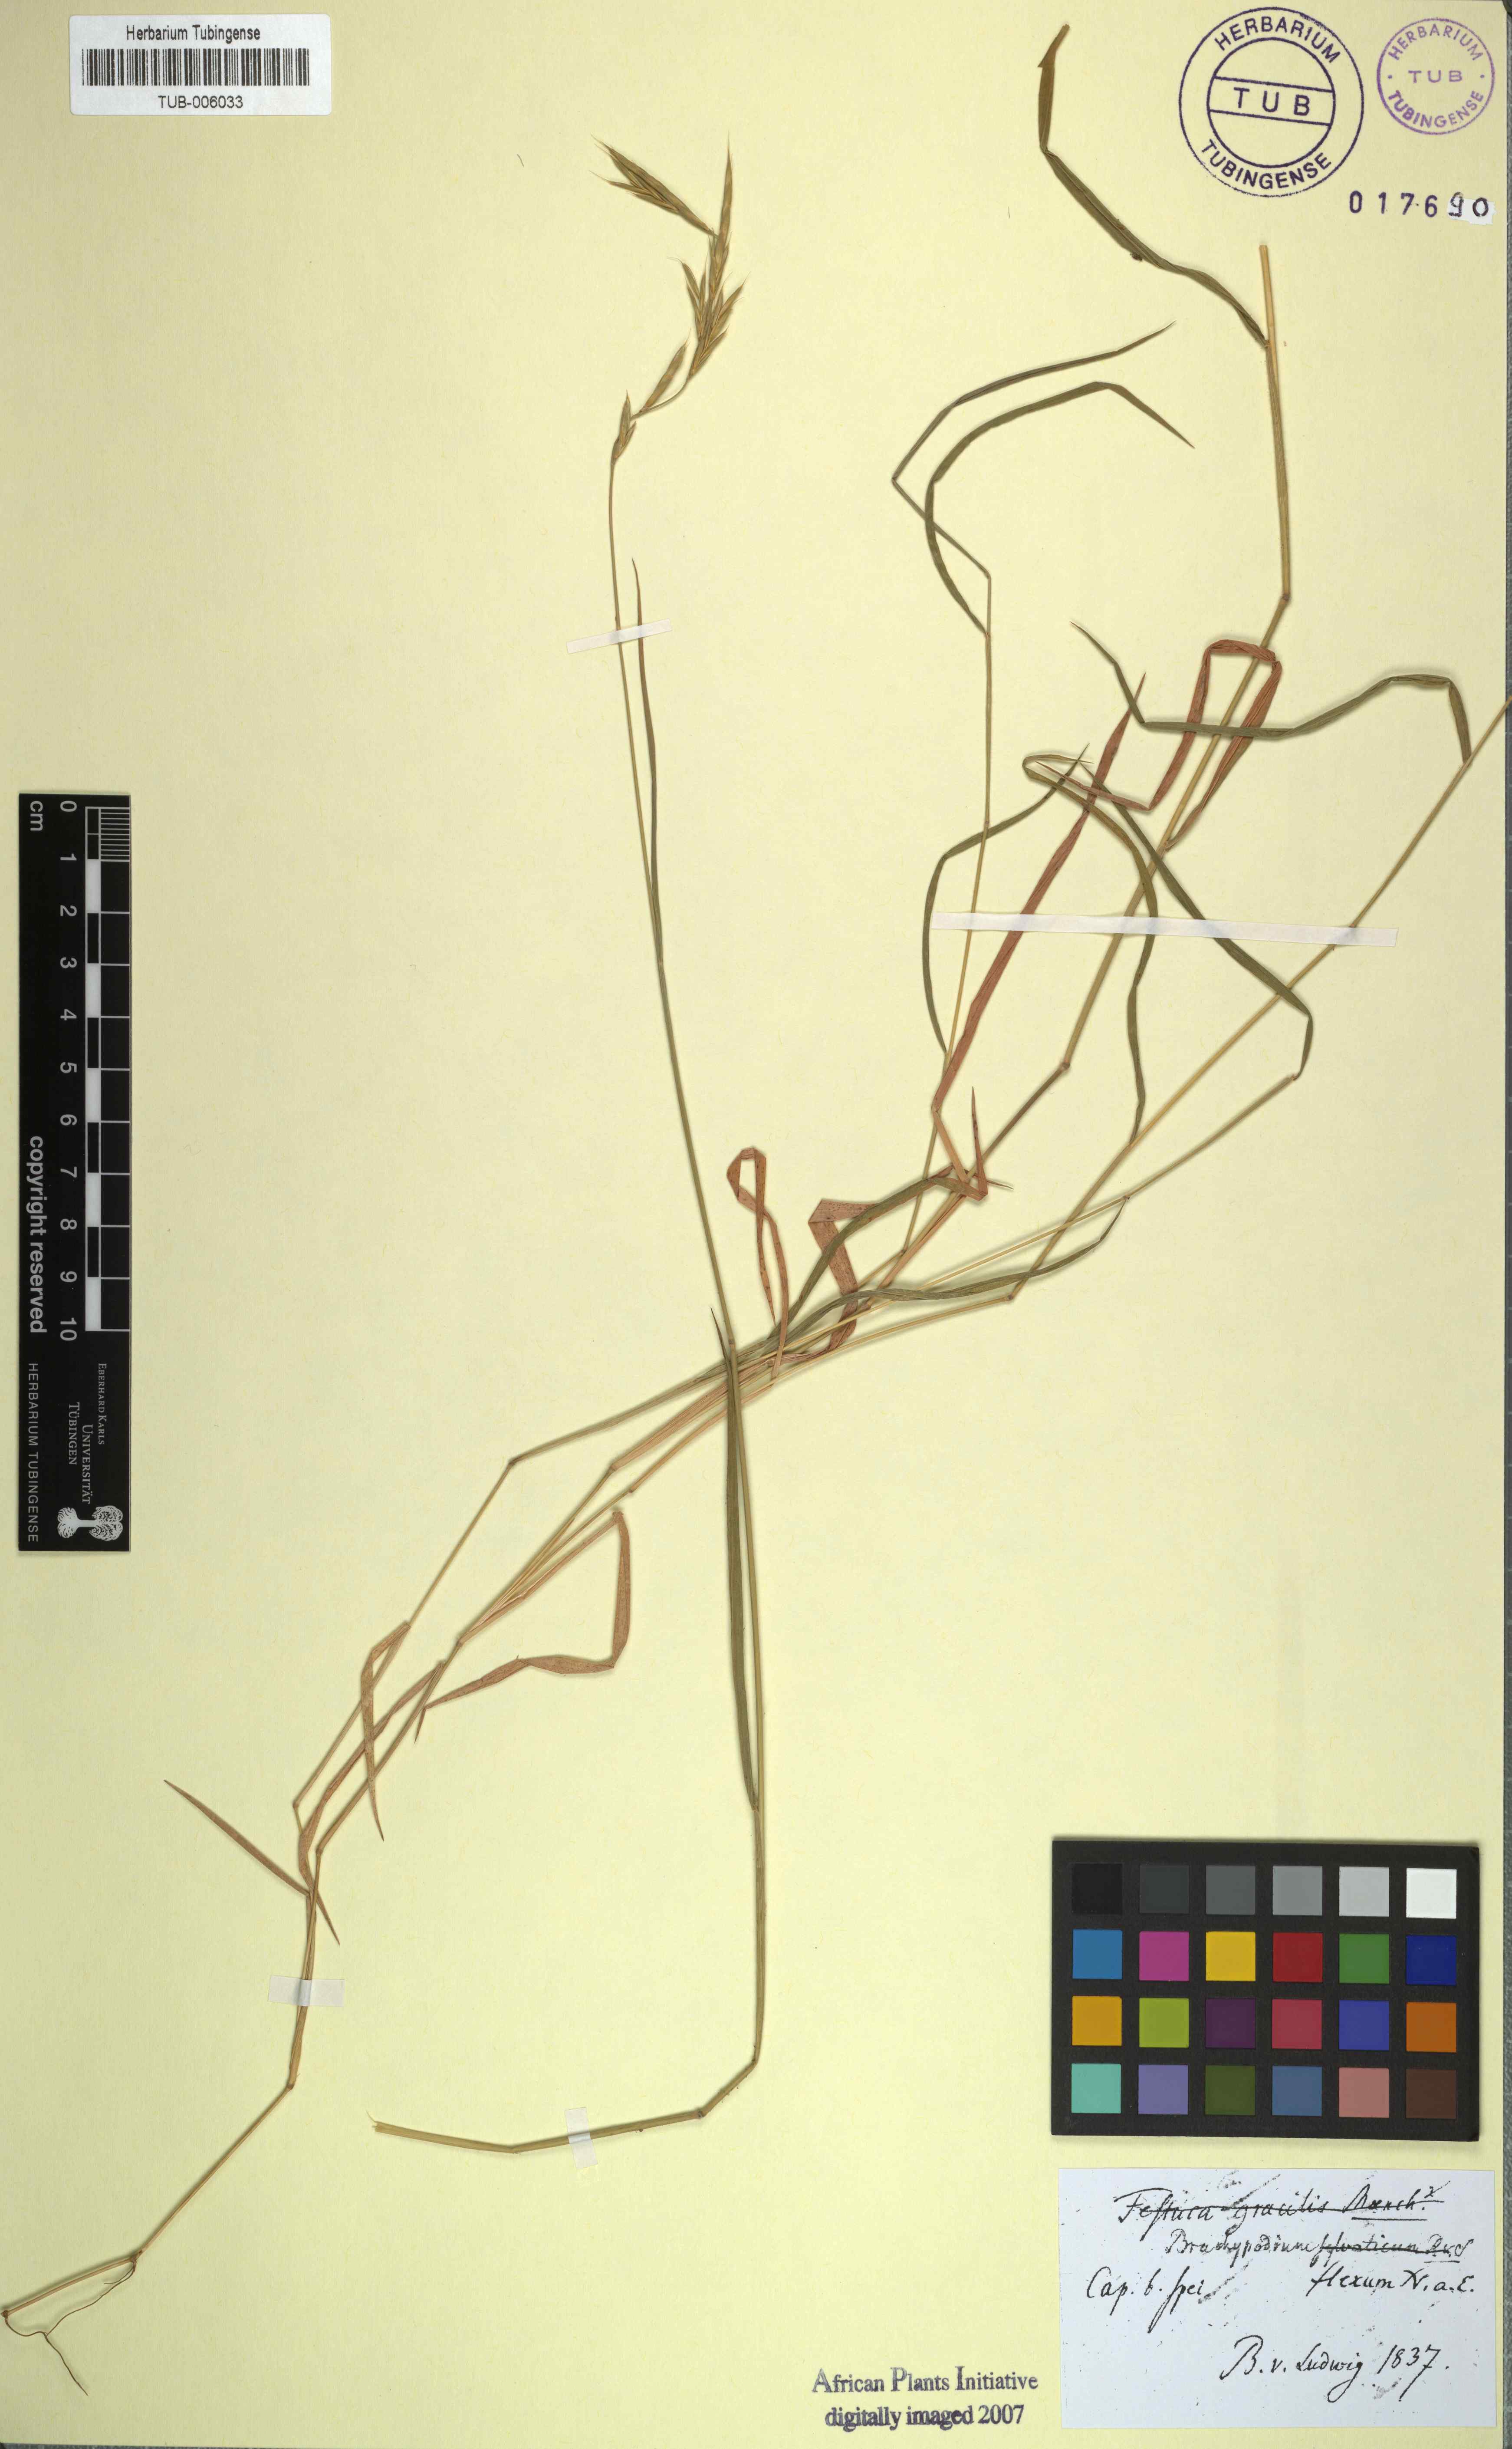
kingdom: Plantae
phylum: Tracheophyta
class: Liliopsida
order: Poales
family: Poaceae
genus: Brachypodium
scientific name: Brachypodium flexum
